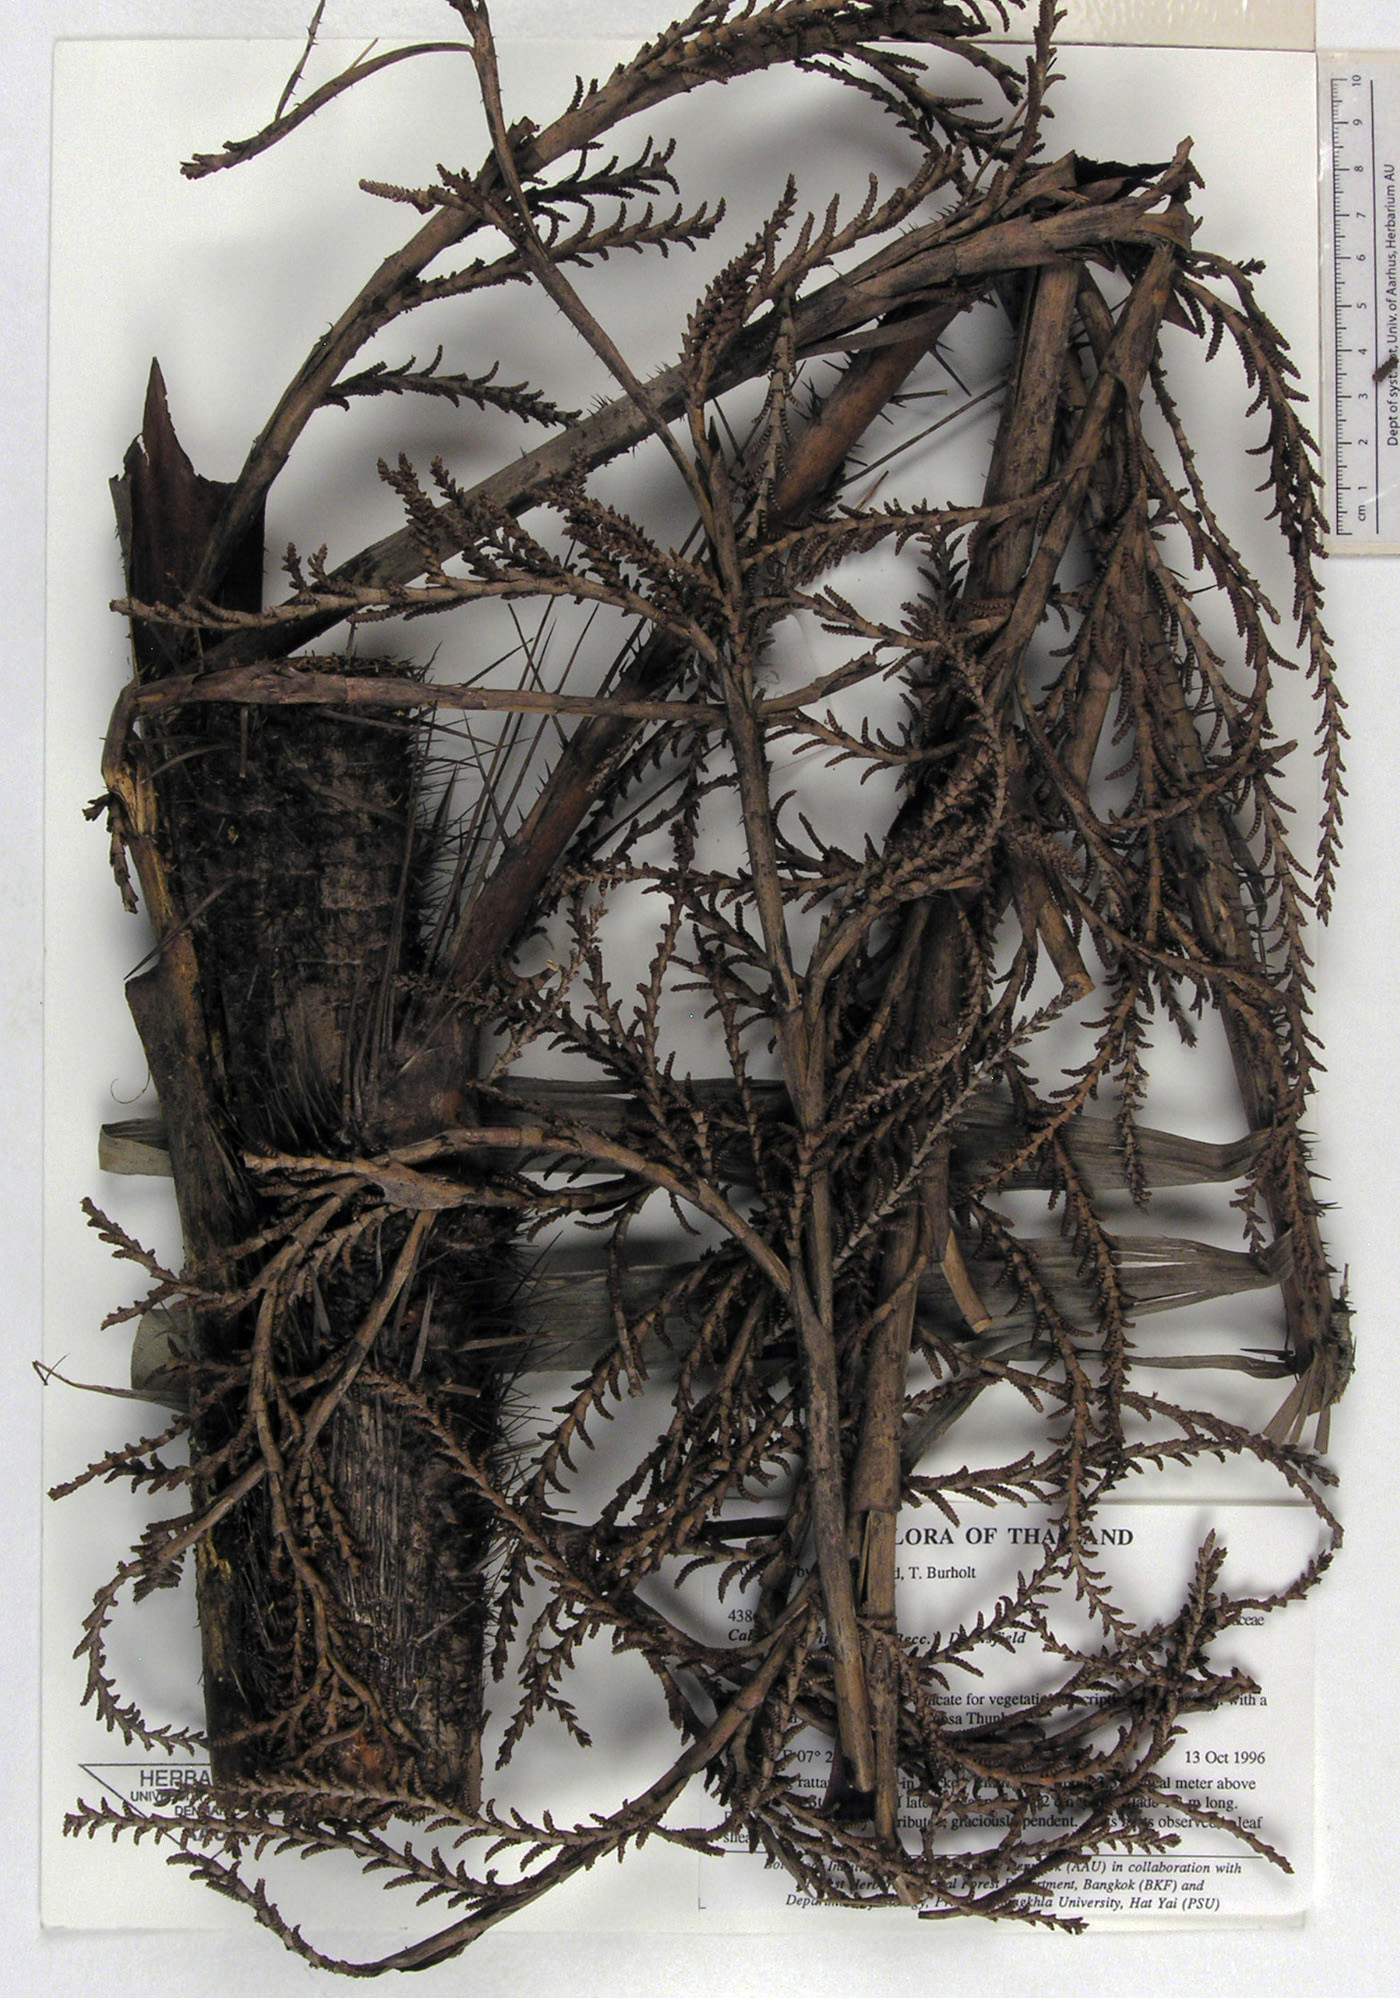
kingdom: Plantae
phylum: Tracheophyta
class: Liliopsida
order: Arecales
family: Arecaceae
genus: Calamus
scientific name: Calamus erinaceus
